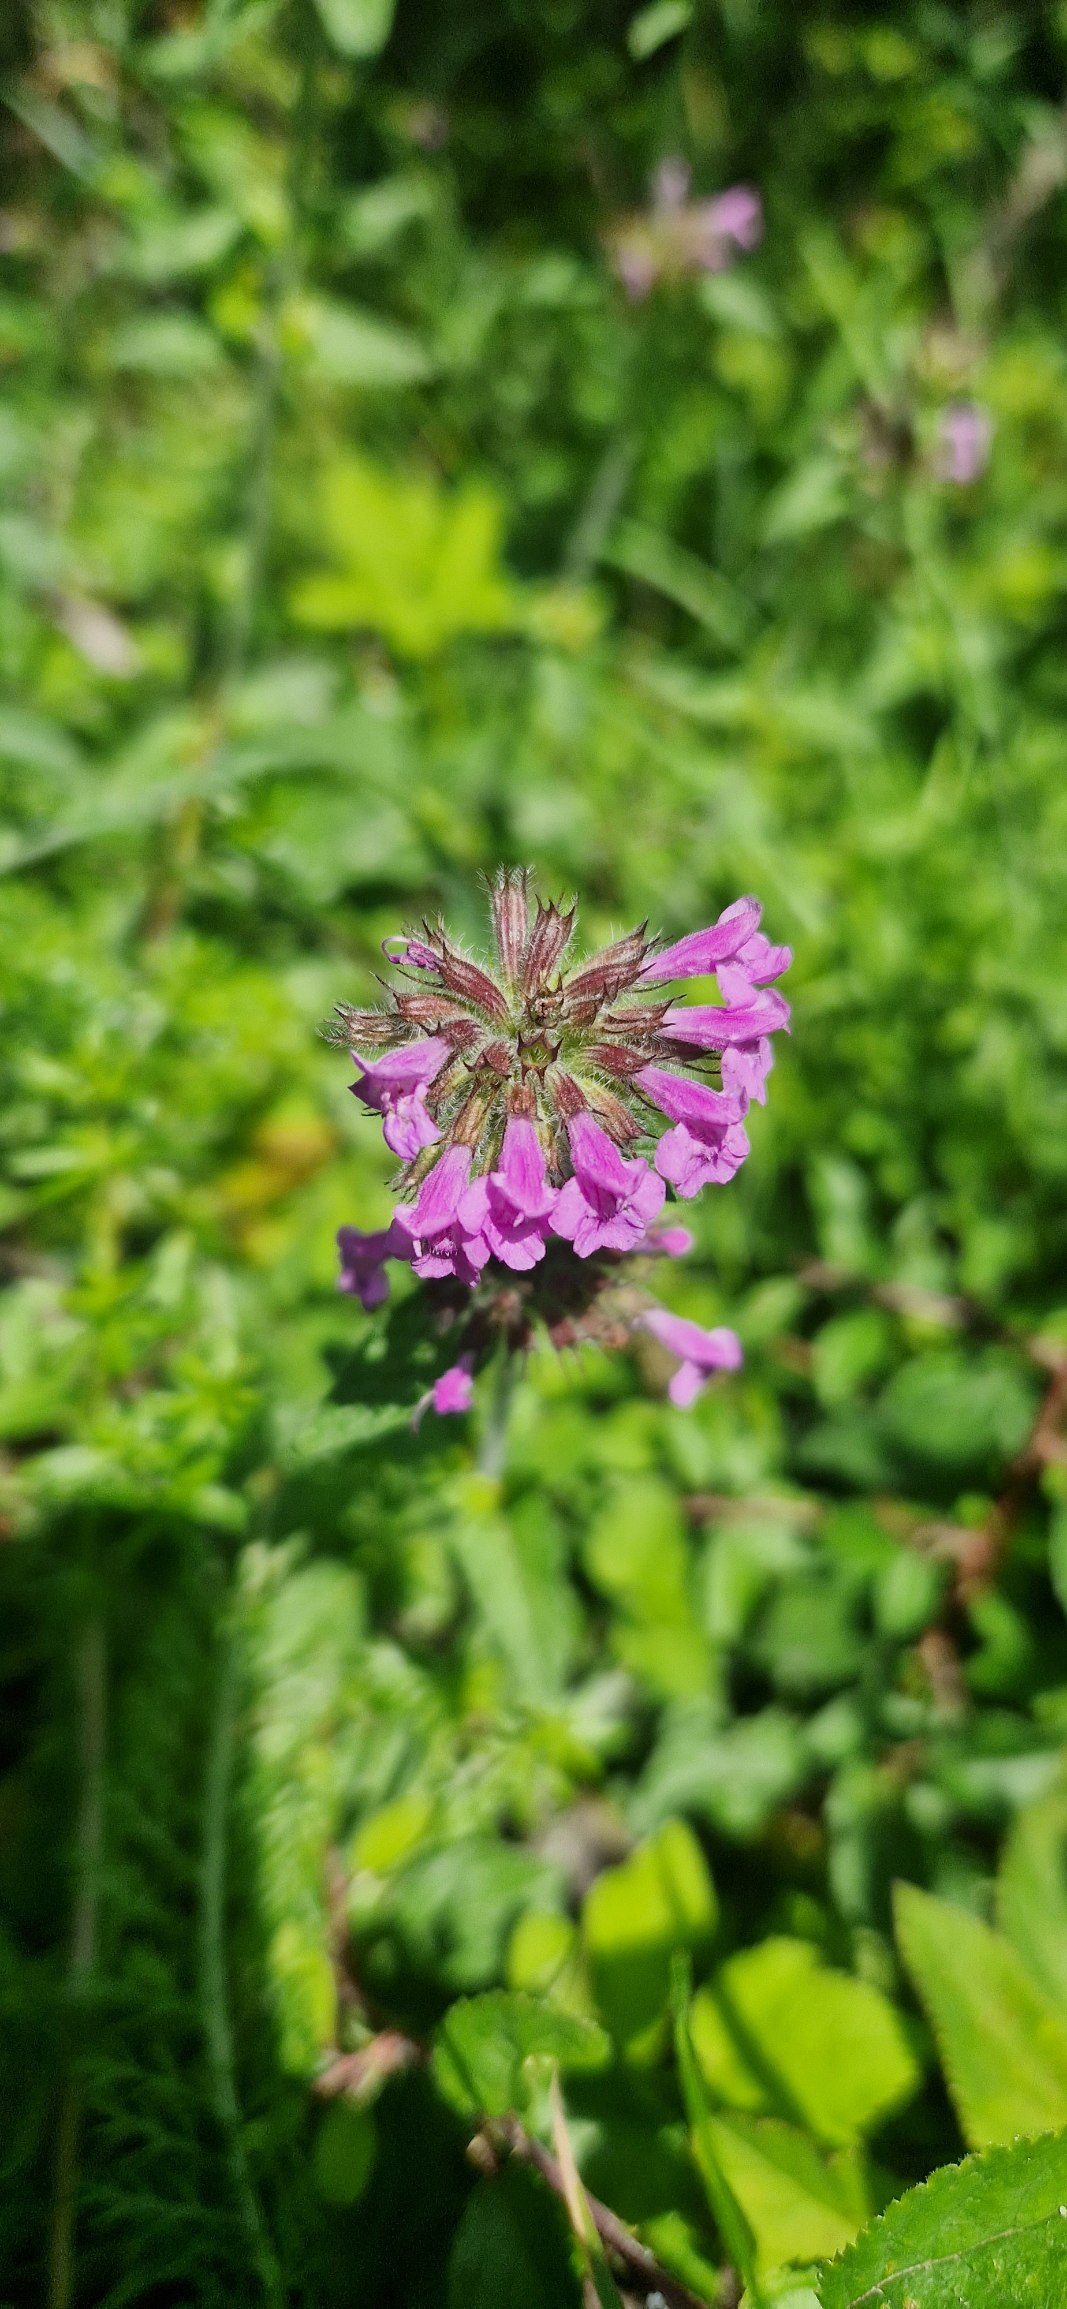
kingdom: Plantae
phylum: Tracheophyta
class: Magnoliopsida
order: Lamiales
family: Lamiaceae
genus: Clinopodium
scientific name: Clinopodium vulgare
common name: Kransbørste
